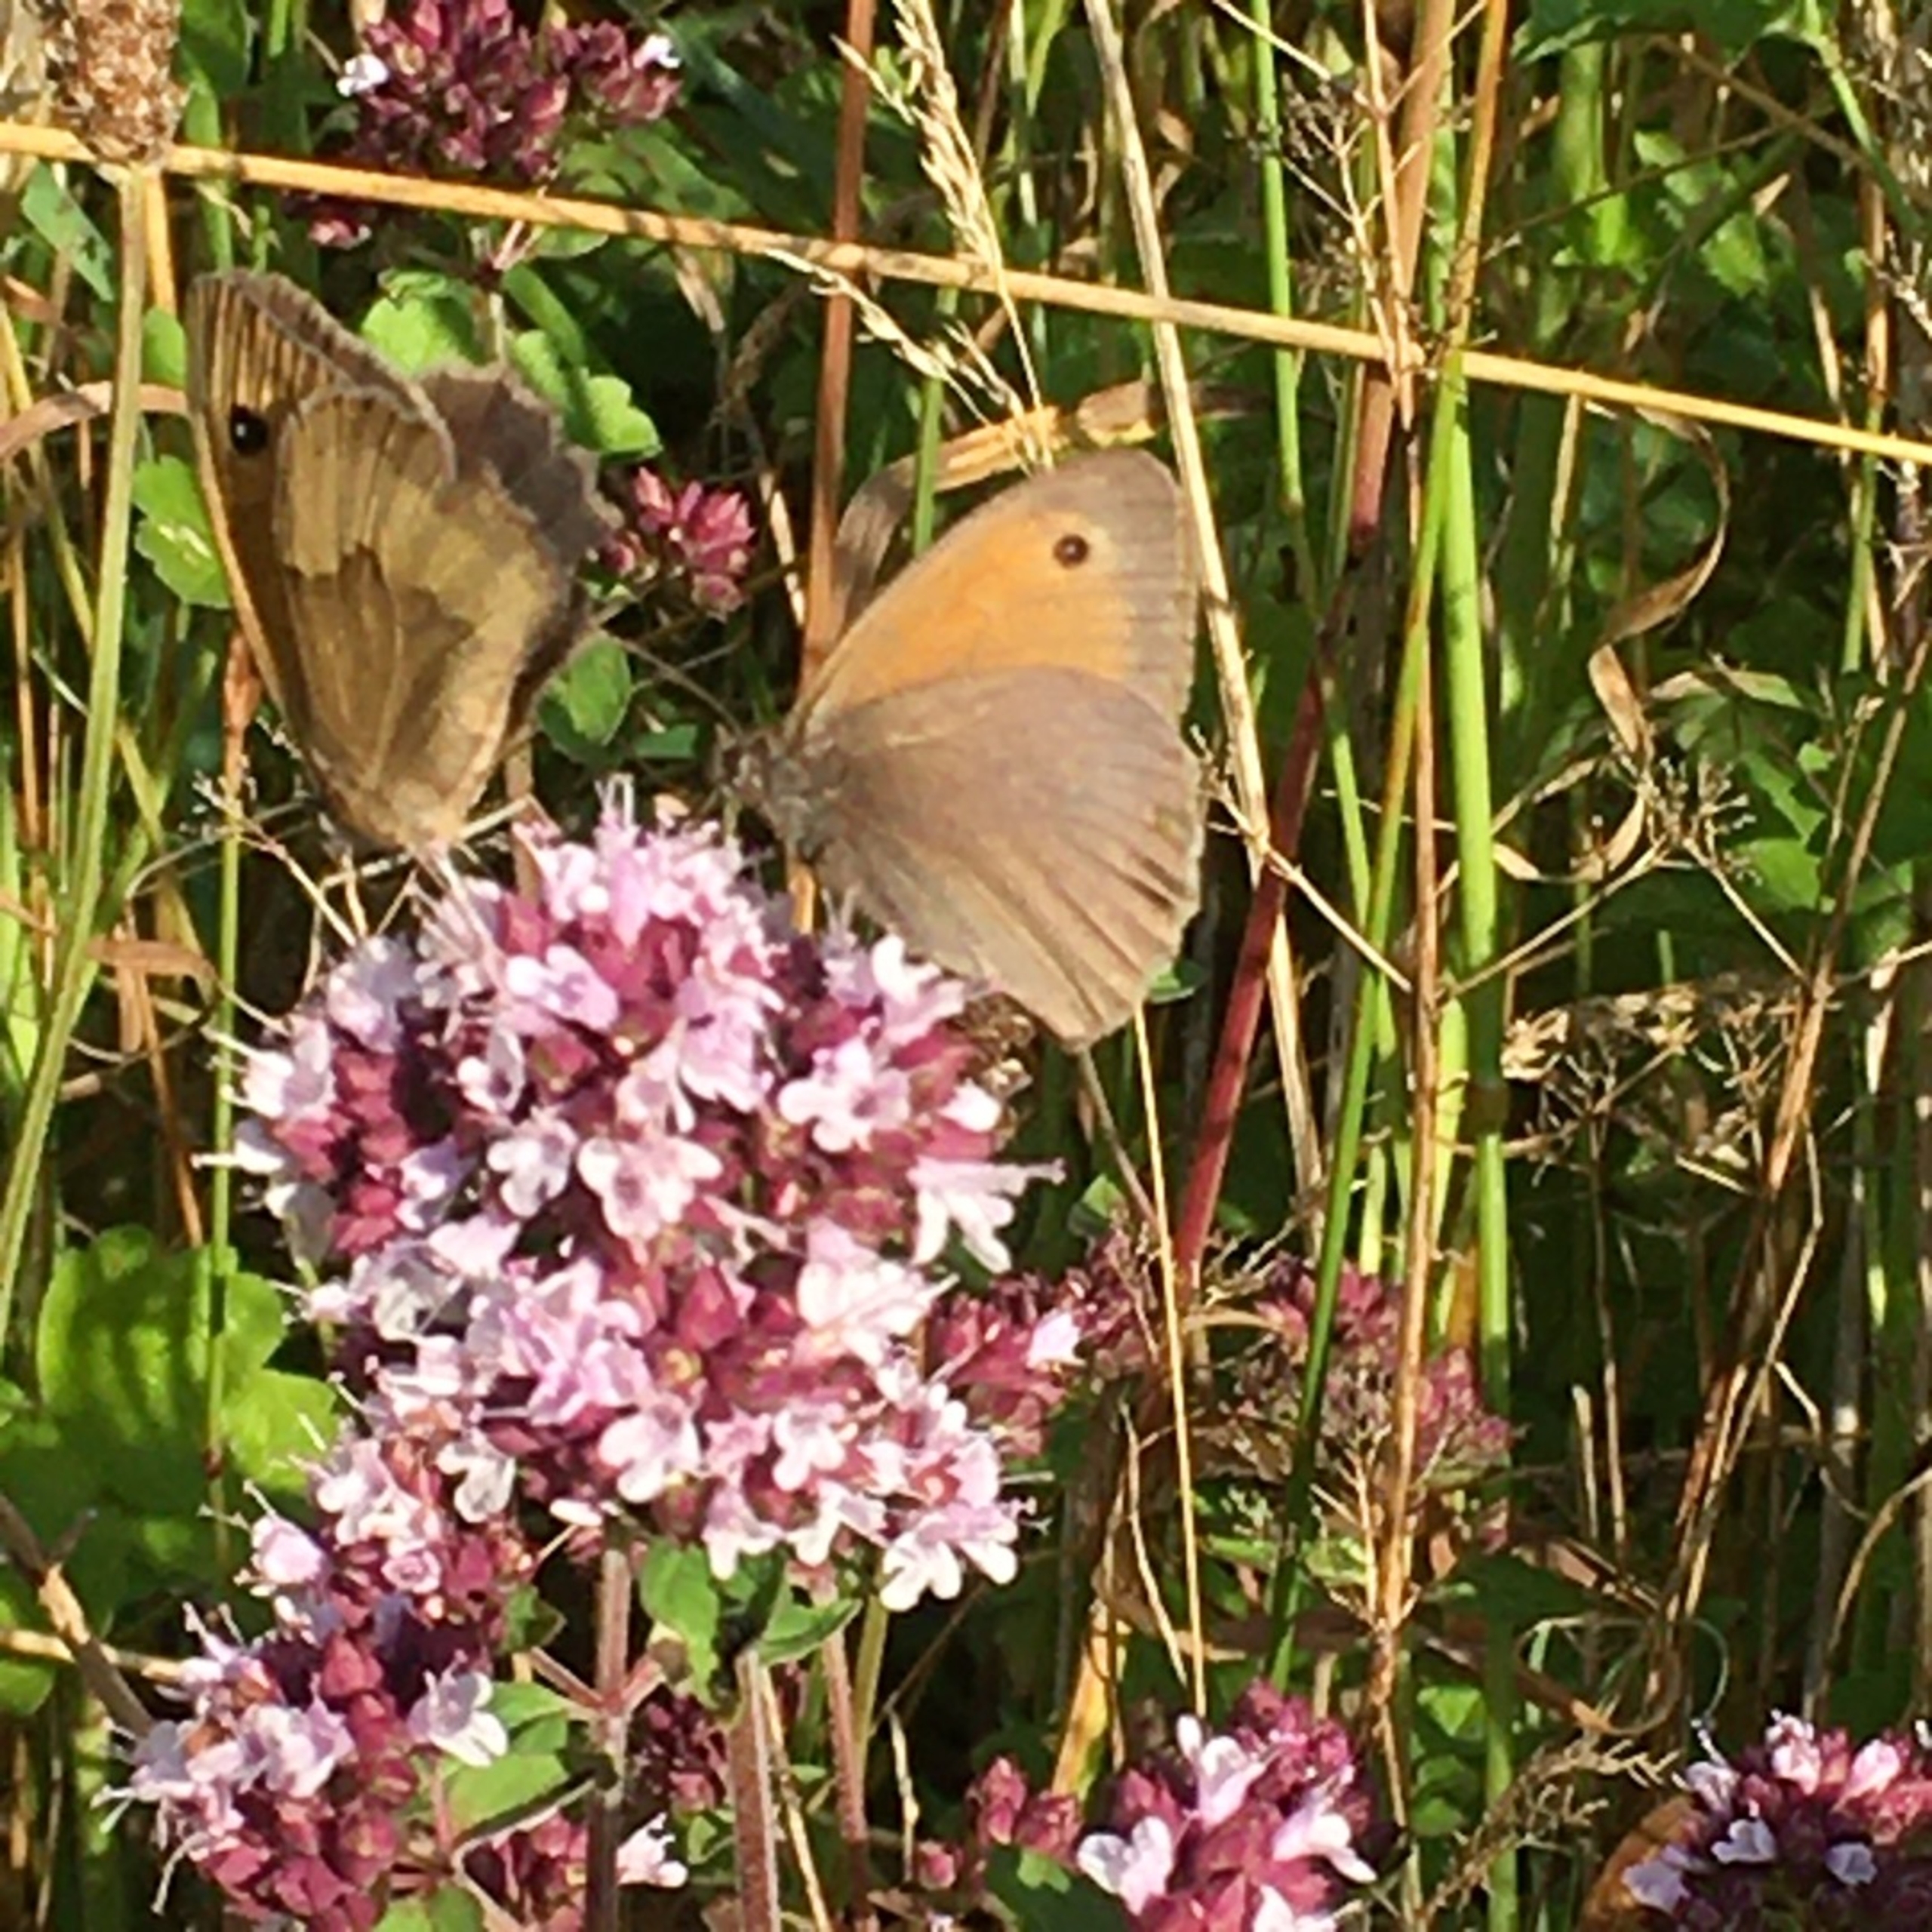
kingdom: Plantae
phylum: Tracheophyta
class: Magnoliopsida
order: Lamiales
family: Lamiaceae
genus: Origanum
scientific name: Origanum vulgare
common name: Merian
